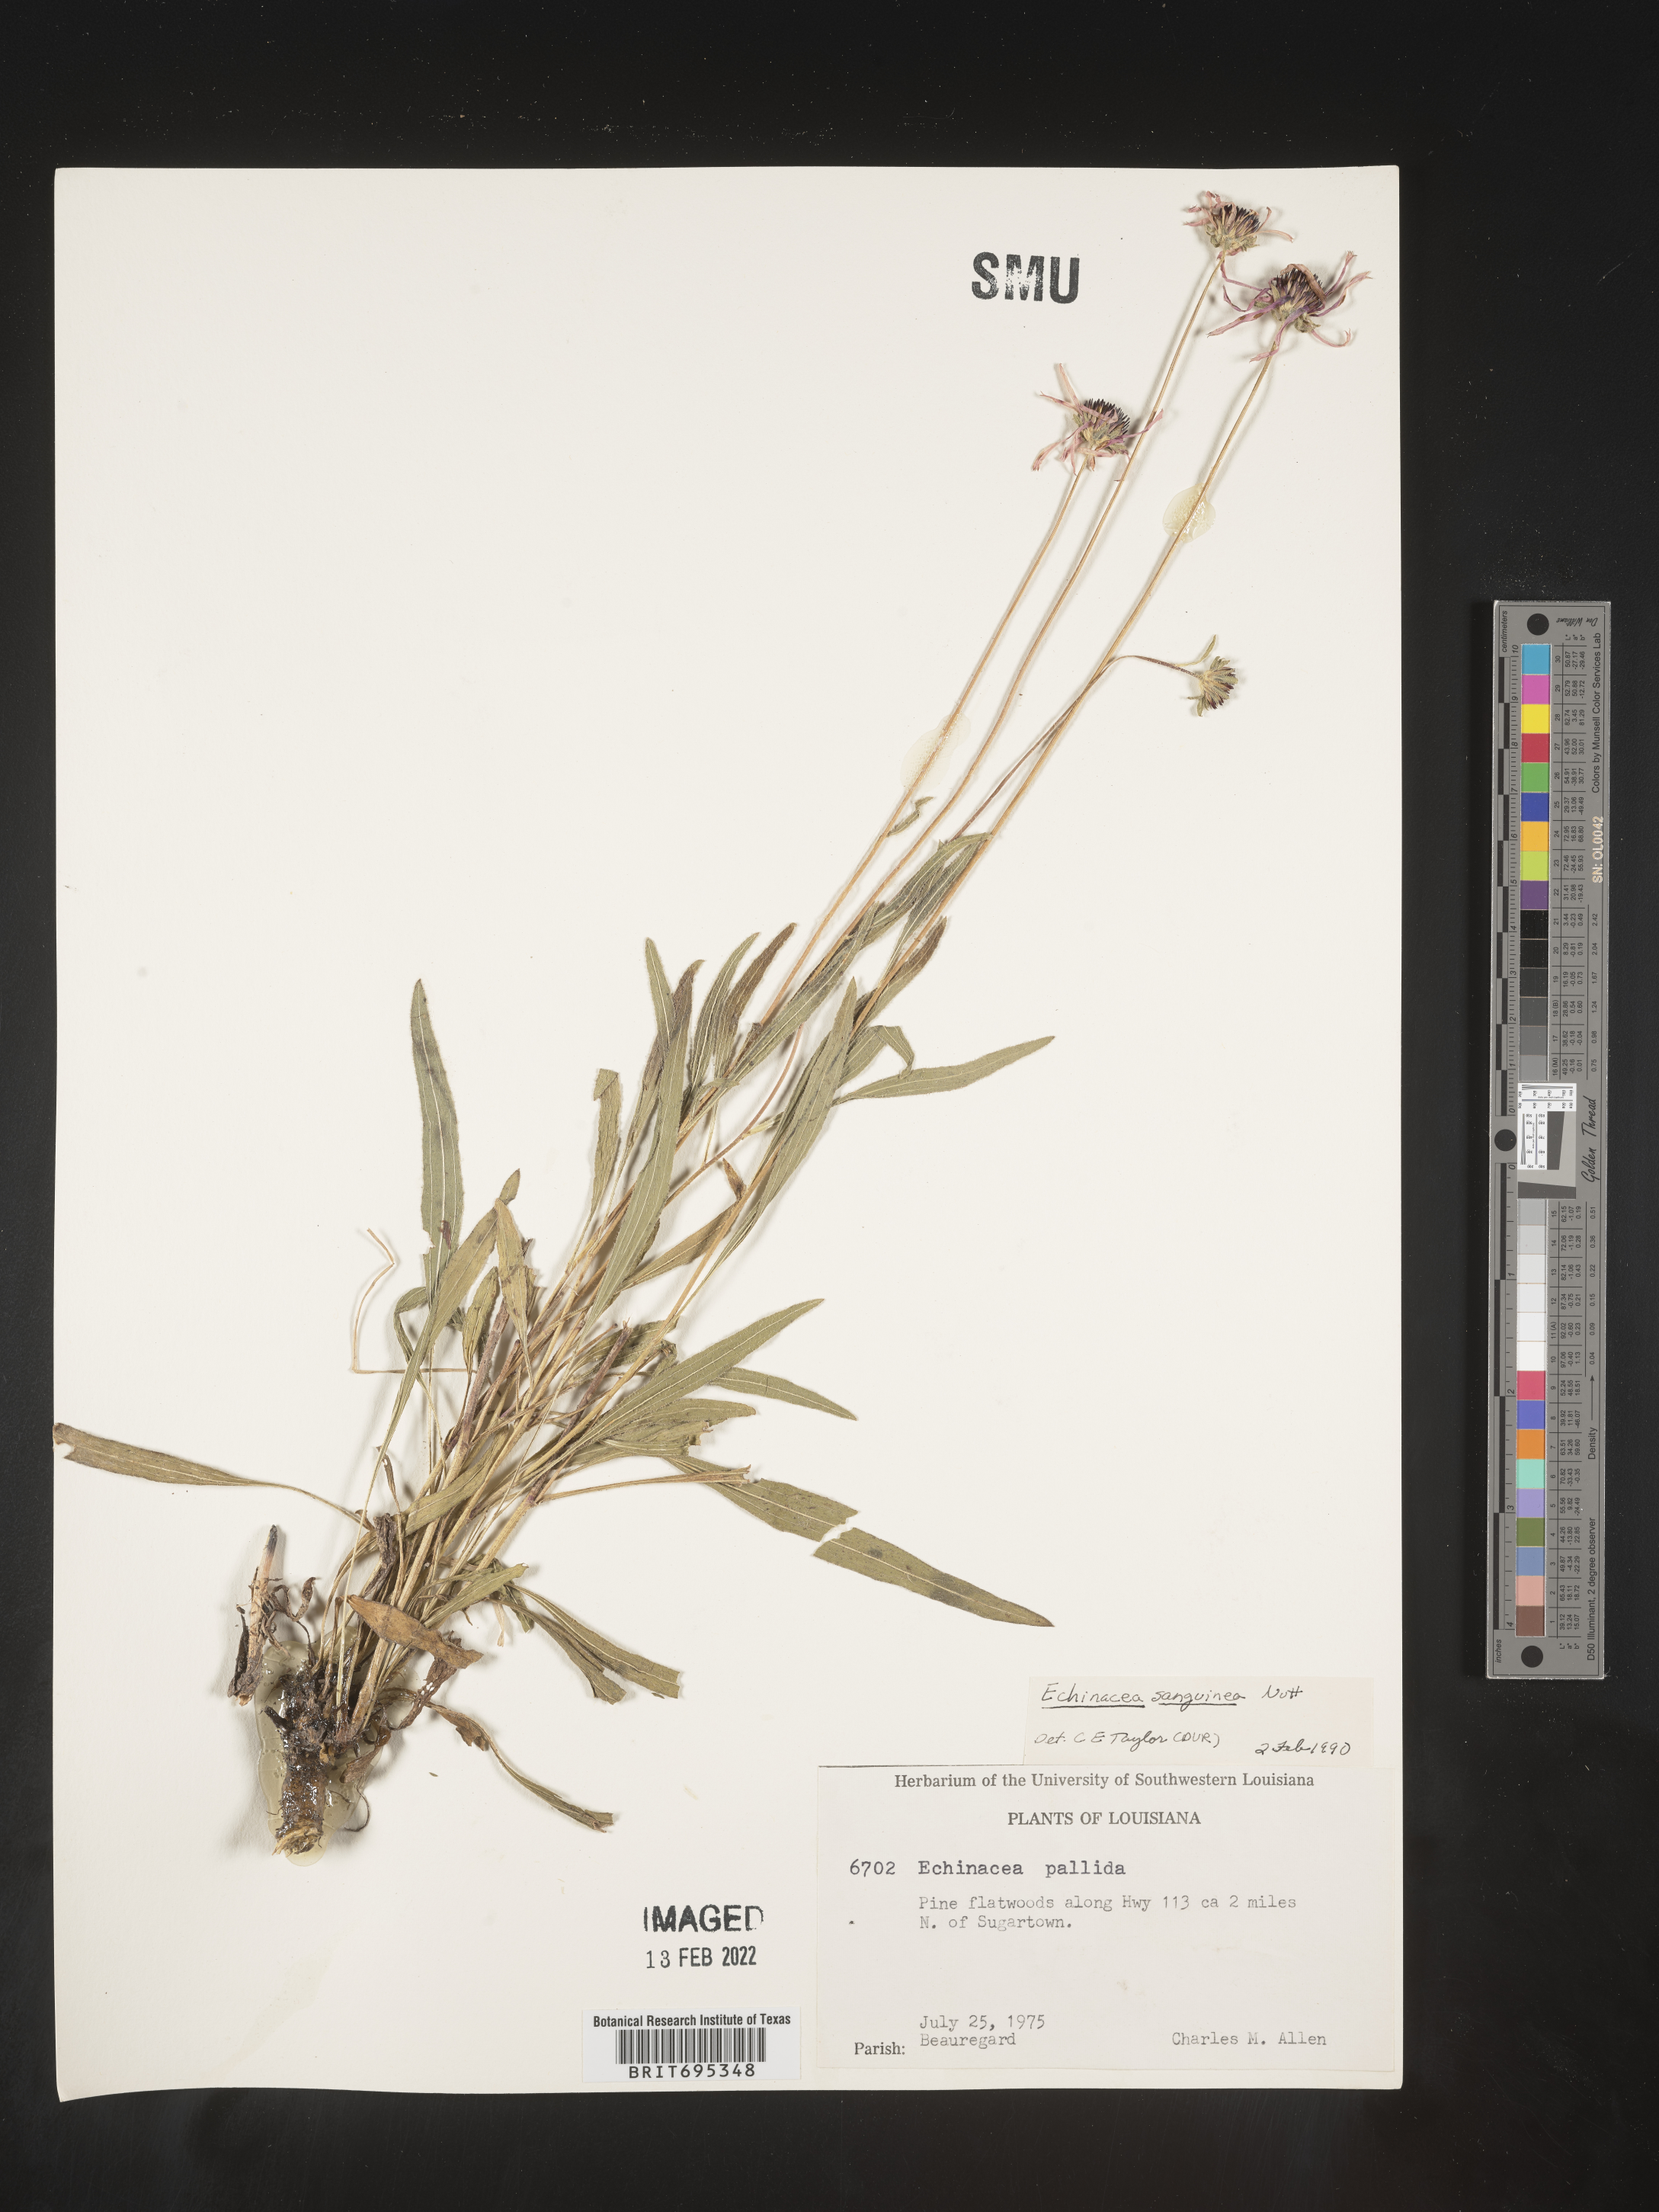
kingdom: Plantae
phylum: Tracheophyta
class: Magnoliopsida
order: Asterales
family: Asteraceae
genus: Echinacea
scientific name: Echinacea sanguinea
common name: Sanguine purple-coneflower
